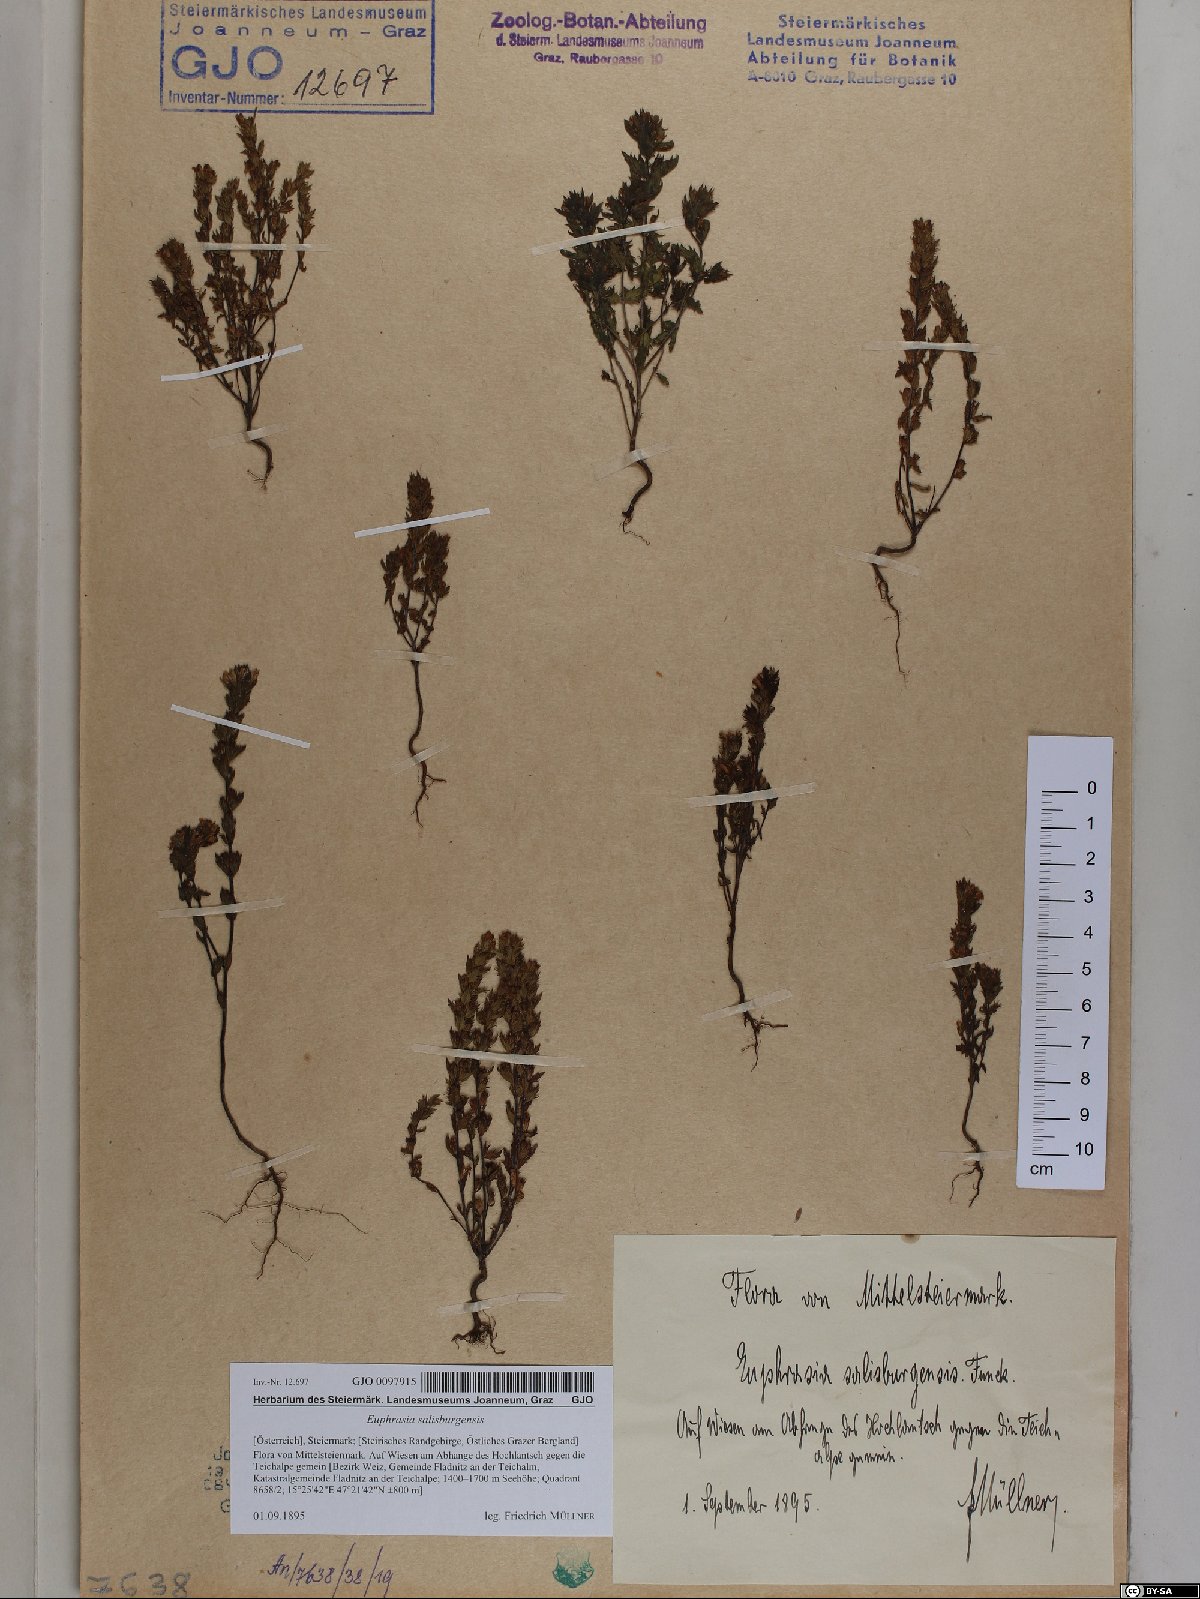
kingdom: Plantae
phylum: Tracheophyta
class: Magnoliopsida
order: Lamiales
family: Orobanchaceae
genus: Euphrasia
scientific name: Euphrasia salisburgensis
